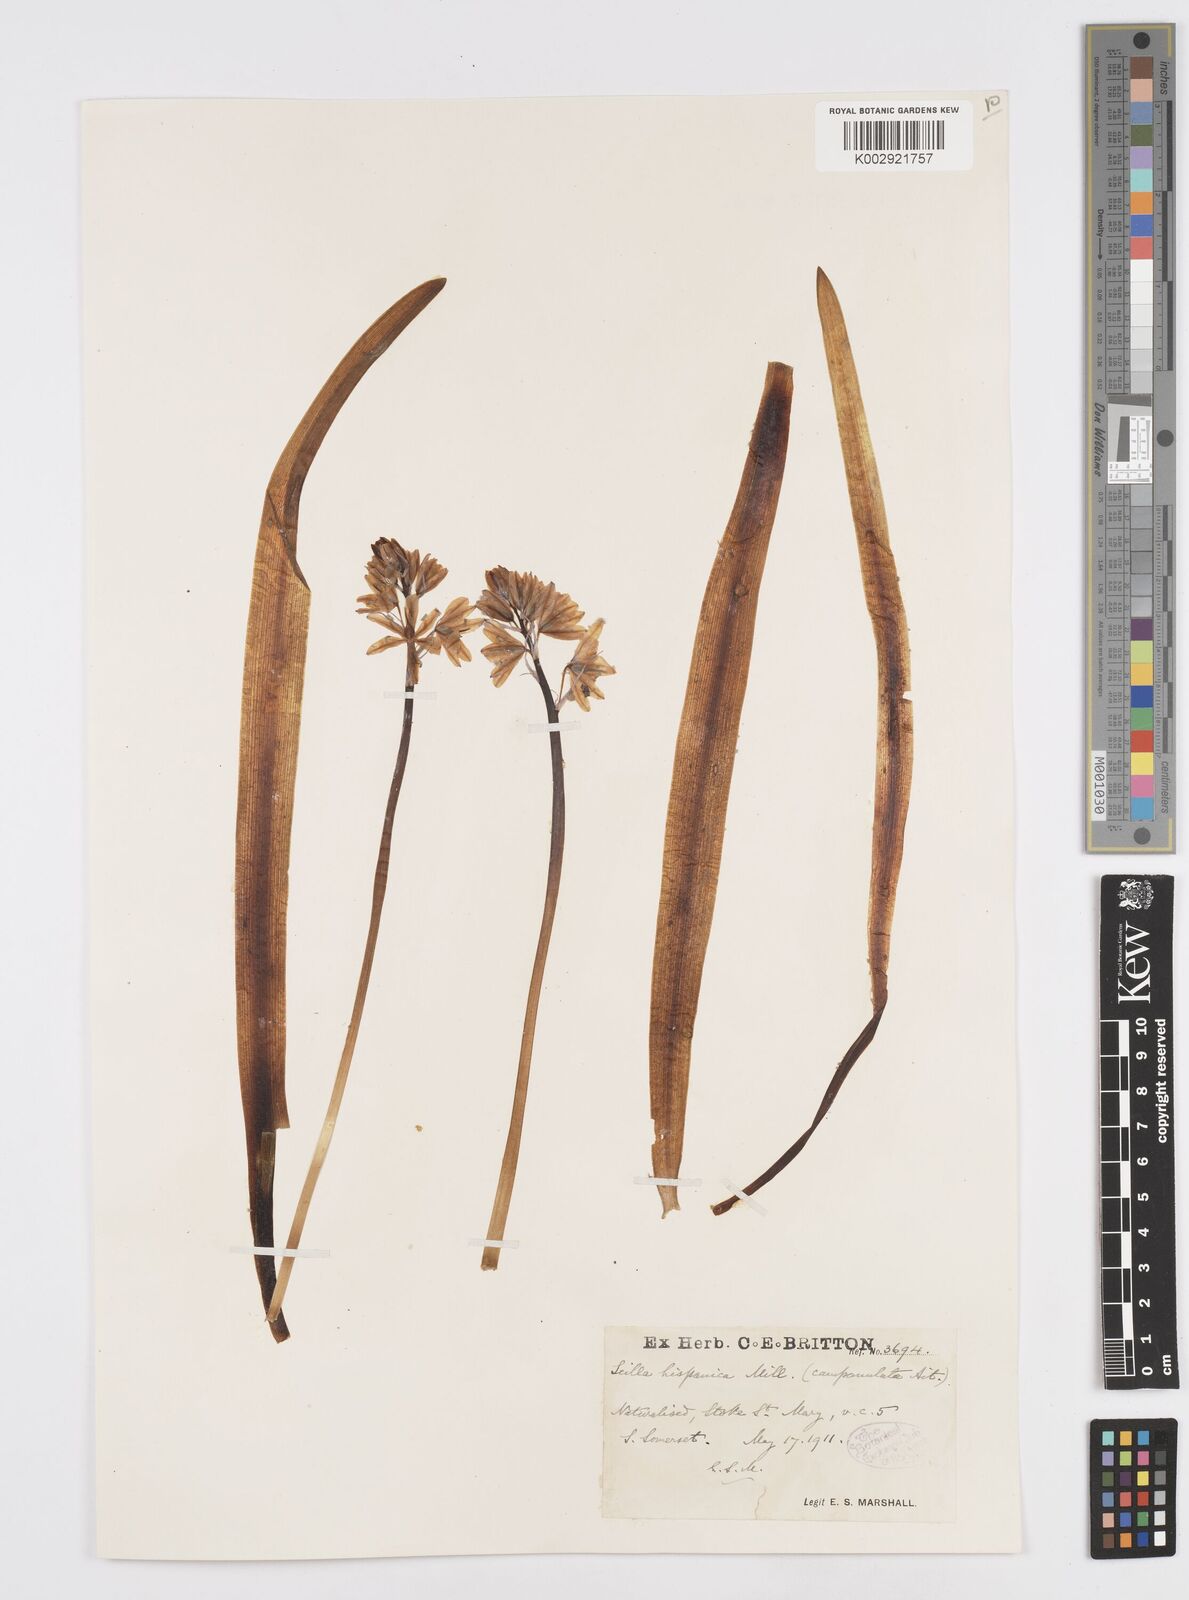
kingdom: Plantae
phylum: Tracheophyta
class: Liliopsida
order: Asparagales
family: Asparagaceae
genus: Hyacinthoides
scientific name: Hyacinthoides hispanica
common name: Spanish bluebell
